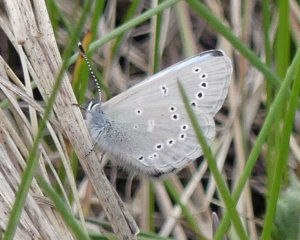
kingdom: Animalia
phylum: Arthropoda
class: Insecta
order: Lepidoptera
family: Lycaenidae
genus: Glaucopsyche
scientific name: Glaucopsyche lygdamus
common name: Silvery Blue
